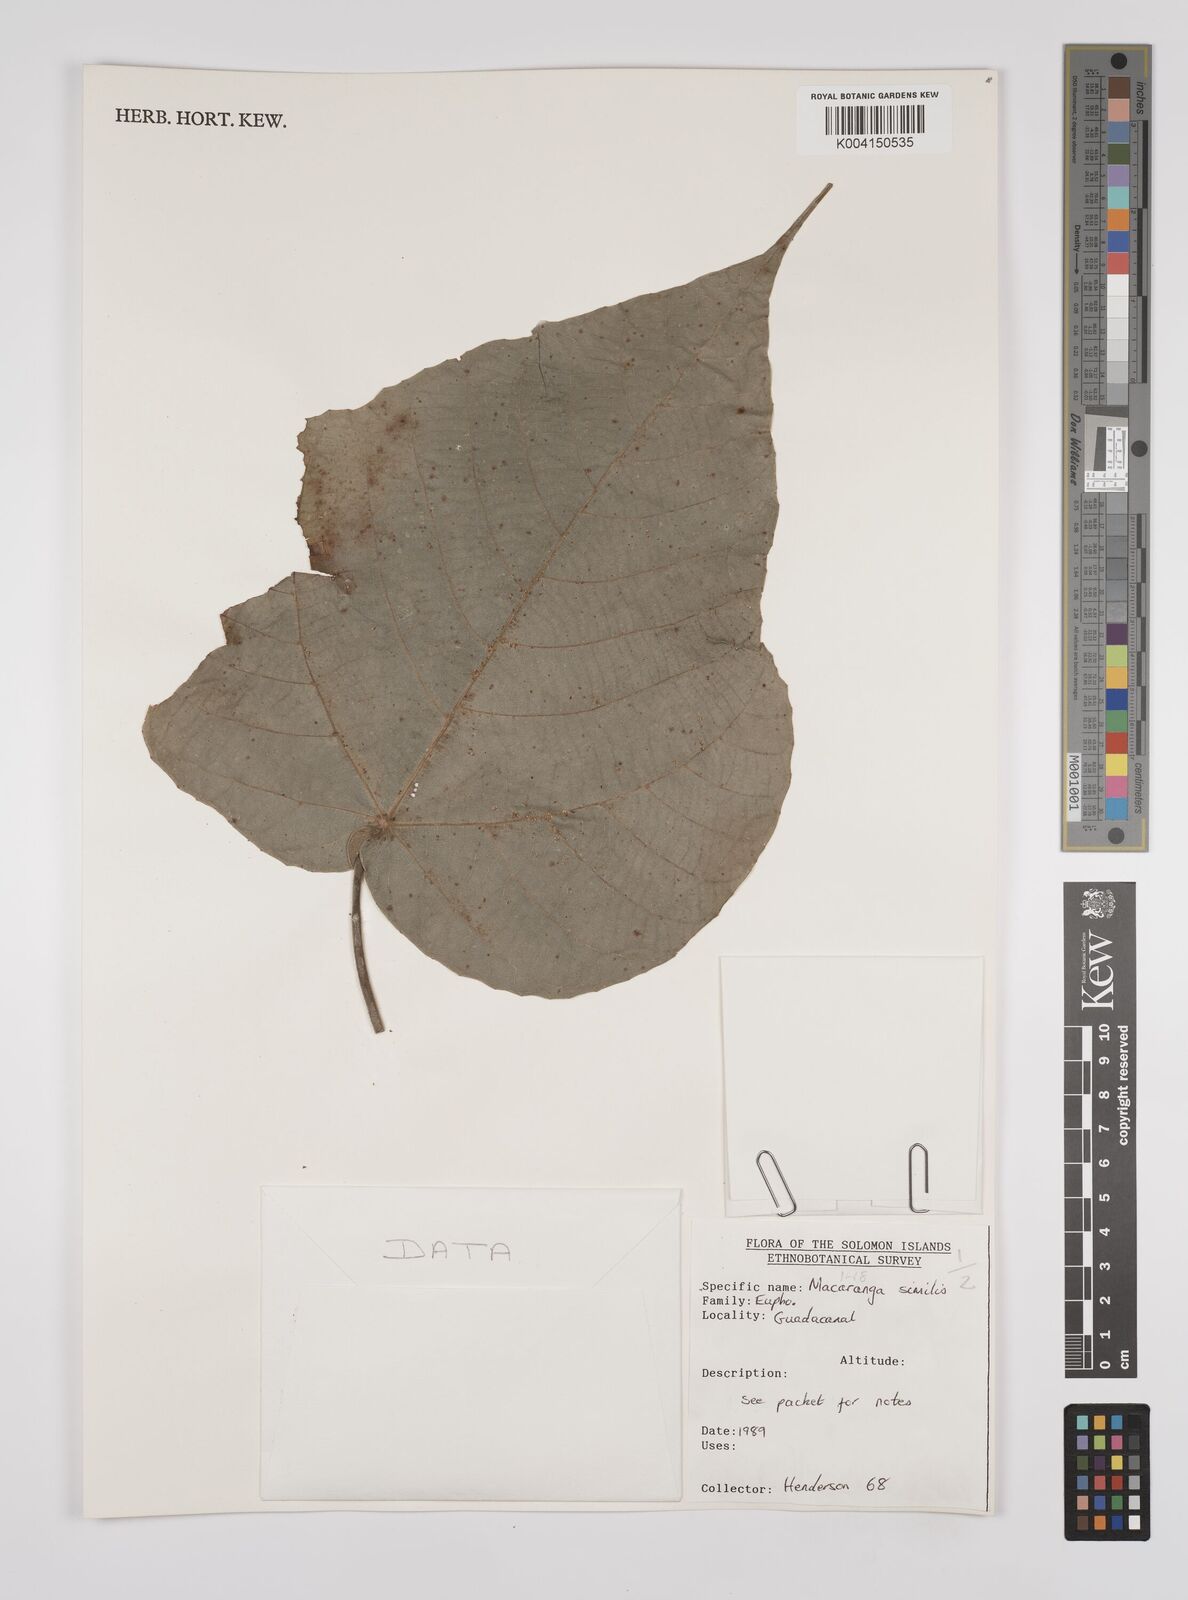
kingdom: Plantae
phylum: Tracheophyta
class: Magnoliopsida
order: Malpighiales
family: Euphorbiaceae
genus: Macaranga
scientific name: Macaranga similis
